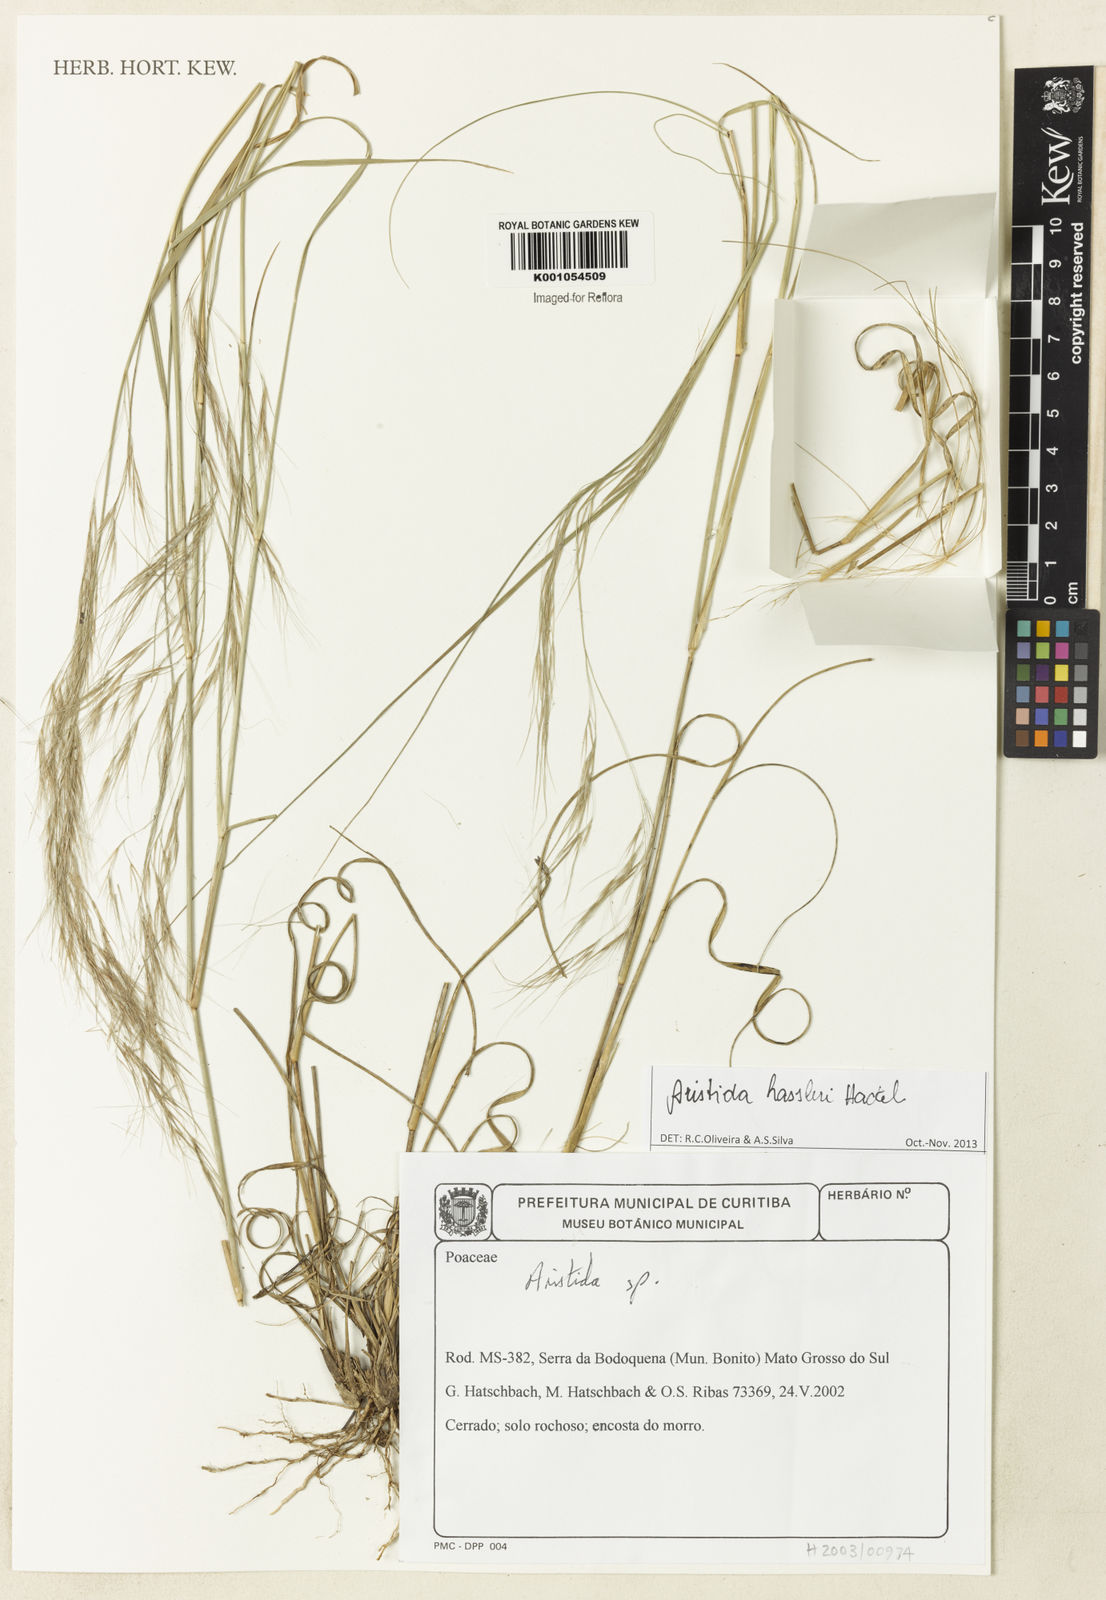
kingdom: Plantae
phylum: Tracheophyta
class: Liliopsida
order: Poales
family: Poaceae
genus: Aristida
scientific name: Aristida hassleri
